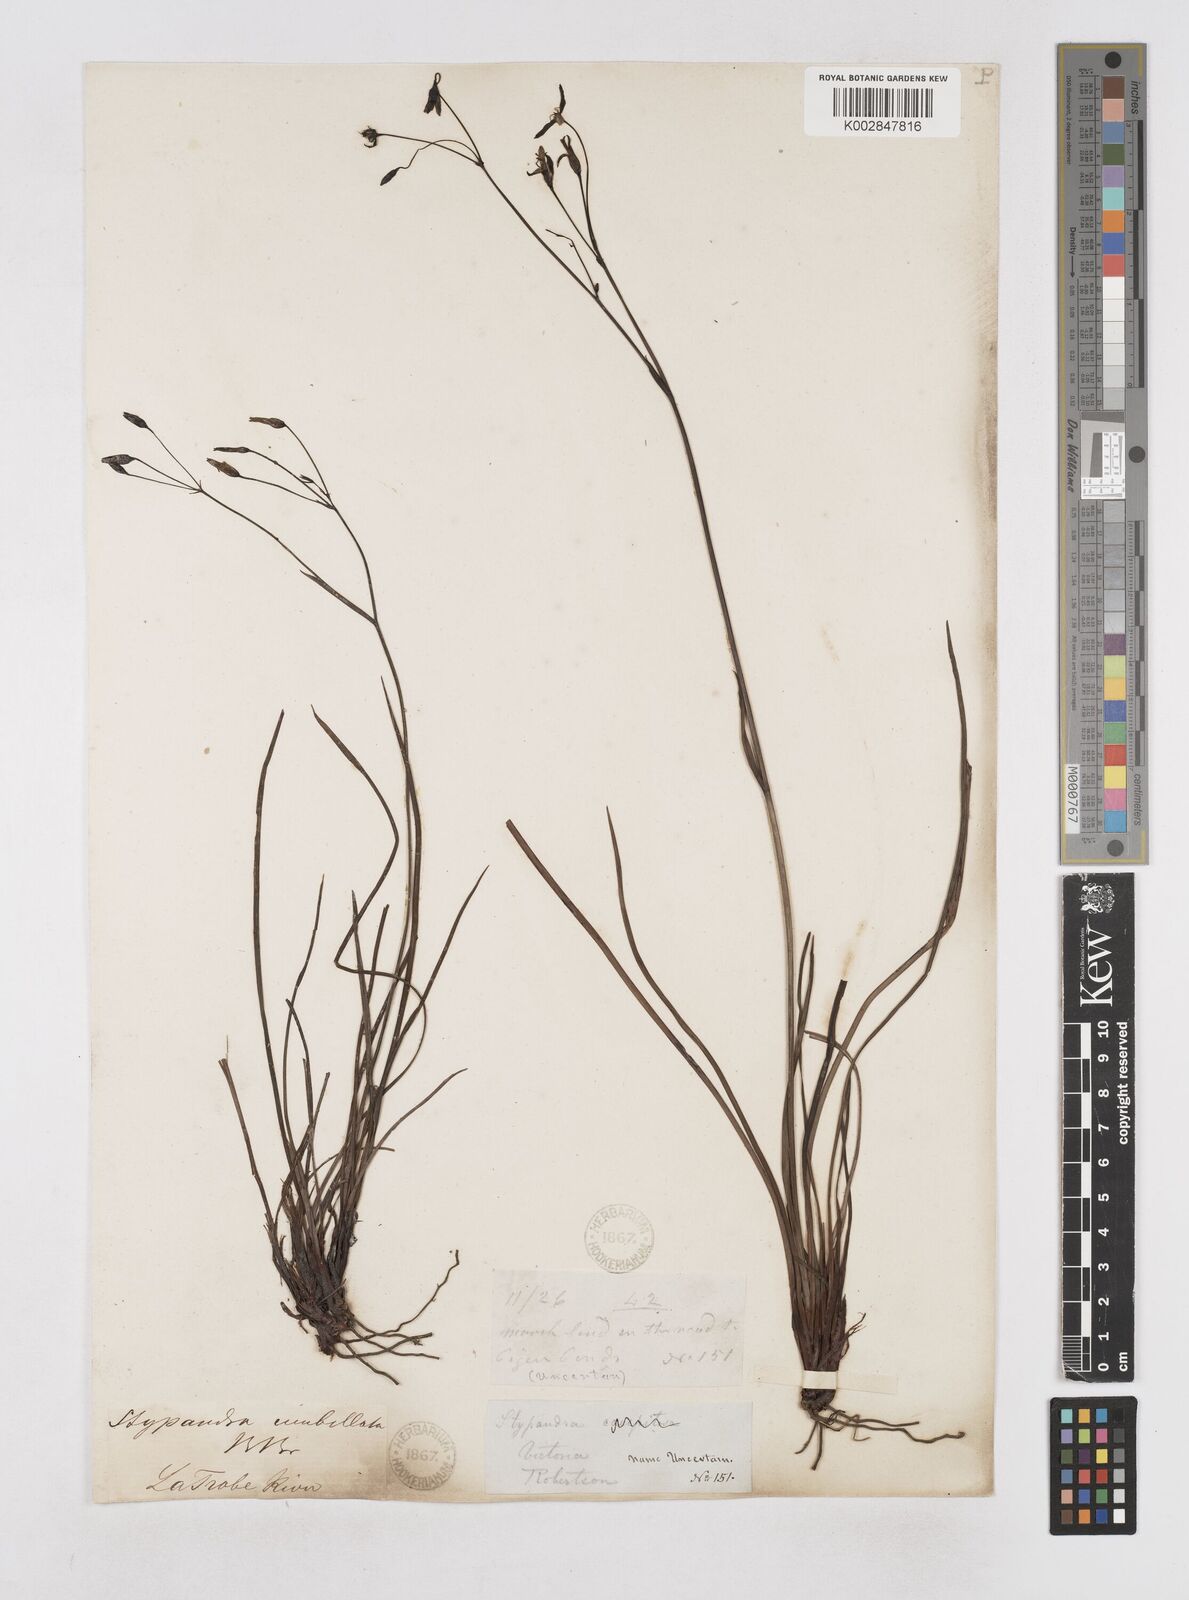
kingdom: Plantae
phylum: Tracheophyta
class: Liliopsida
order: Asparagales
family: Asphodelaceae
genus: Thelionema
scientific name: Thelionema umbellatum
